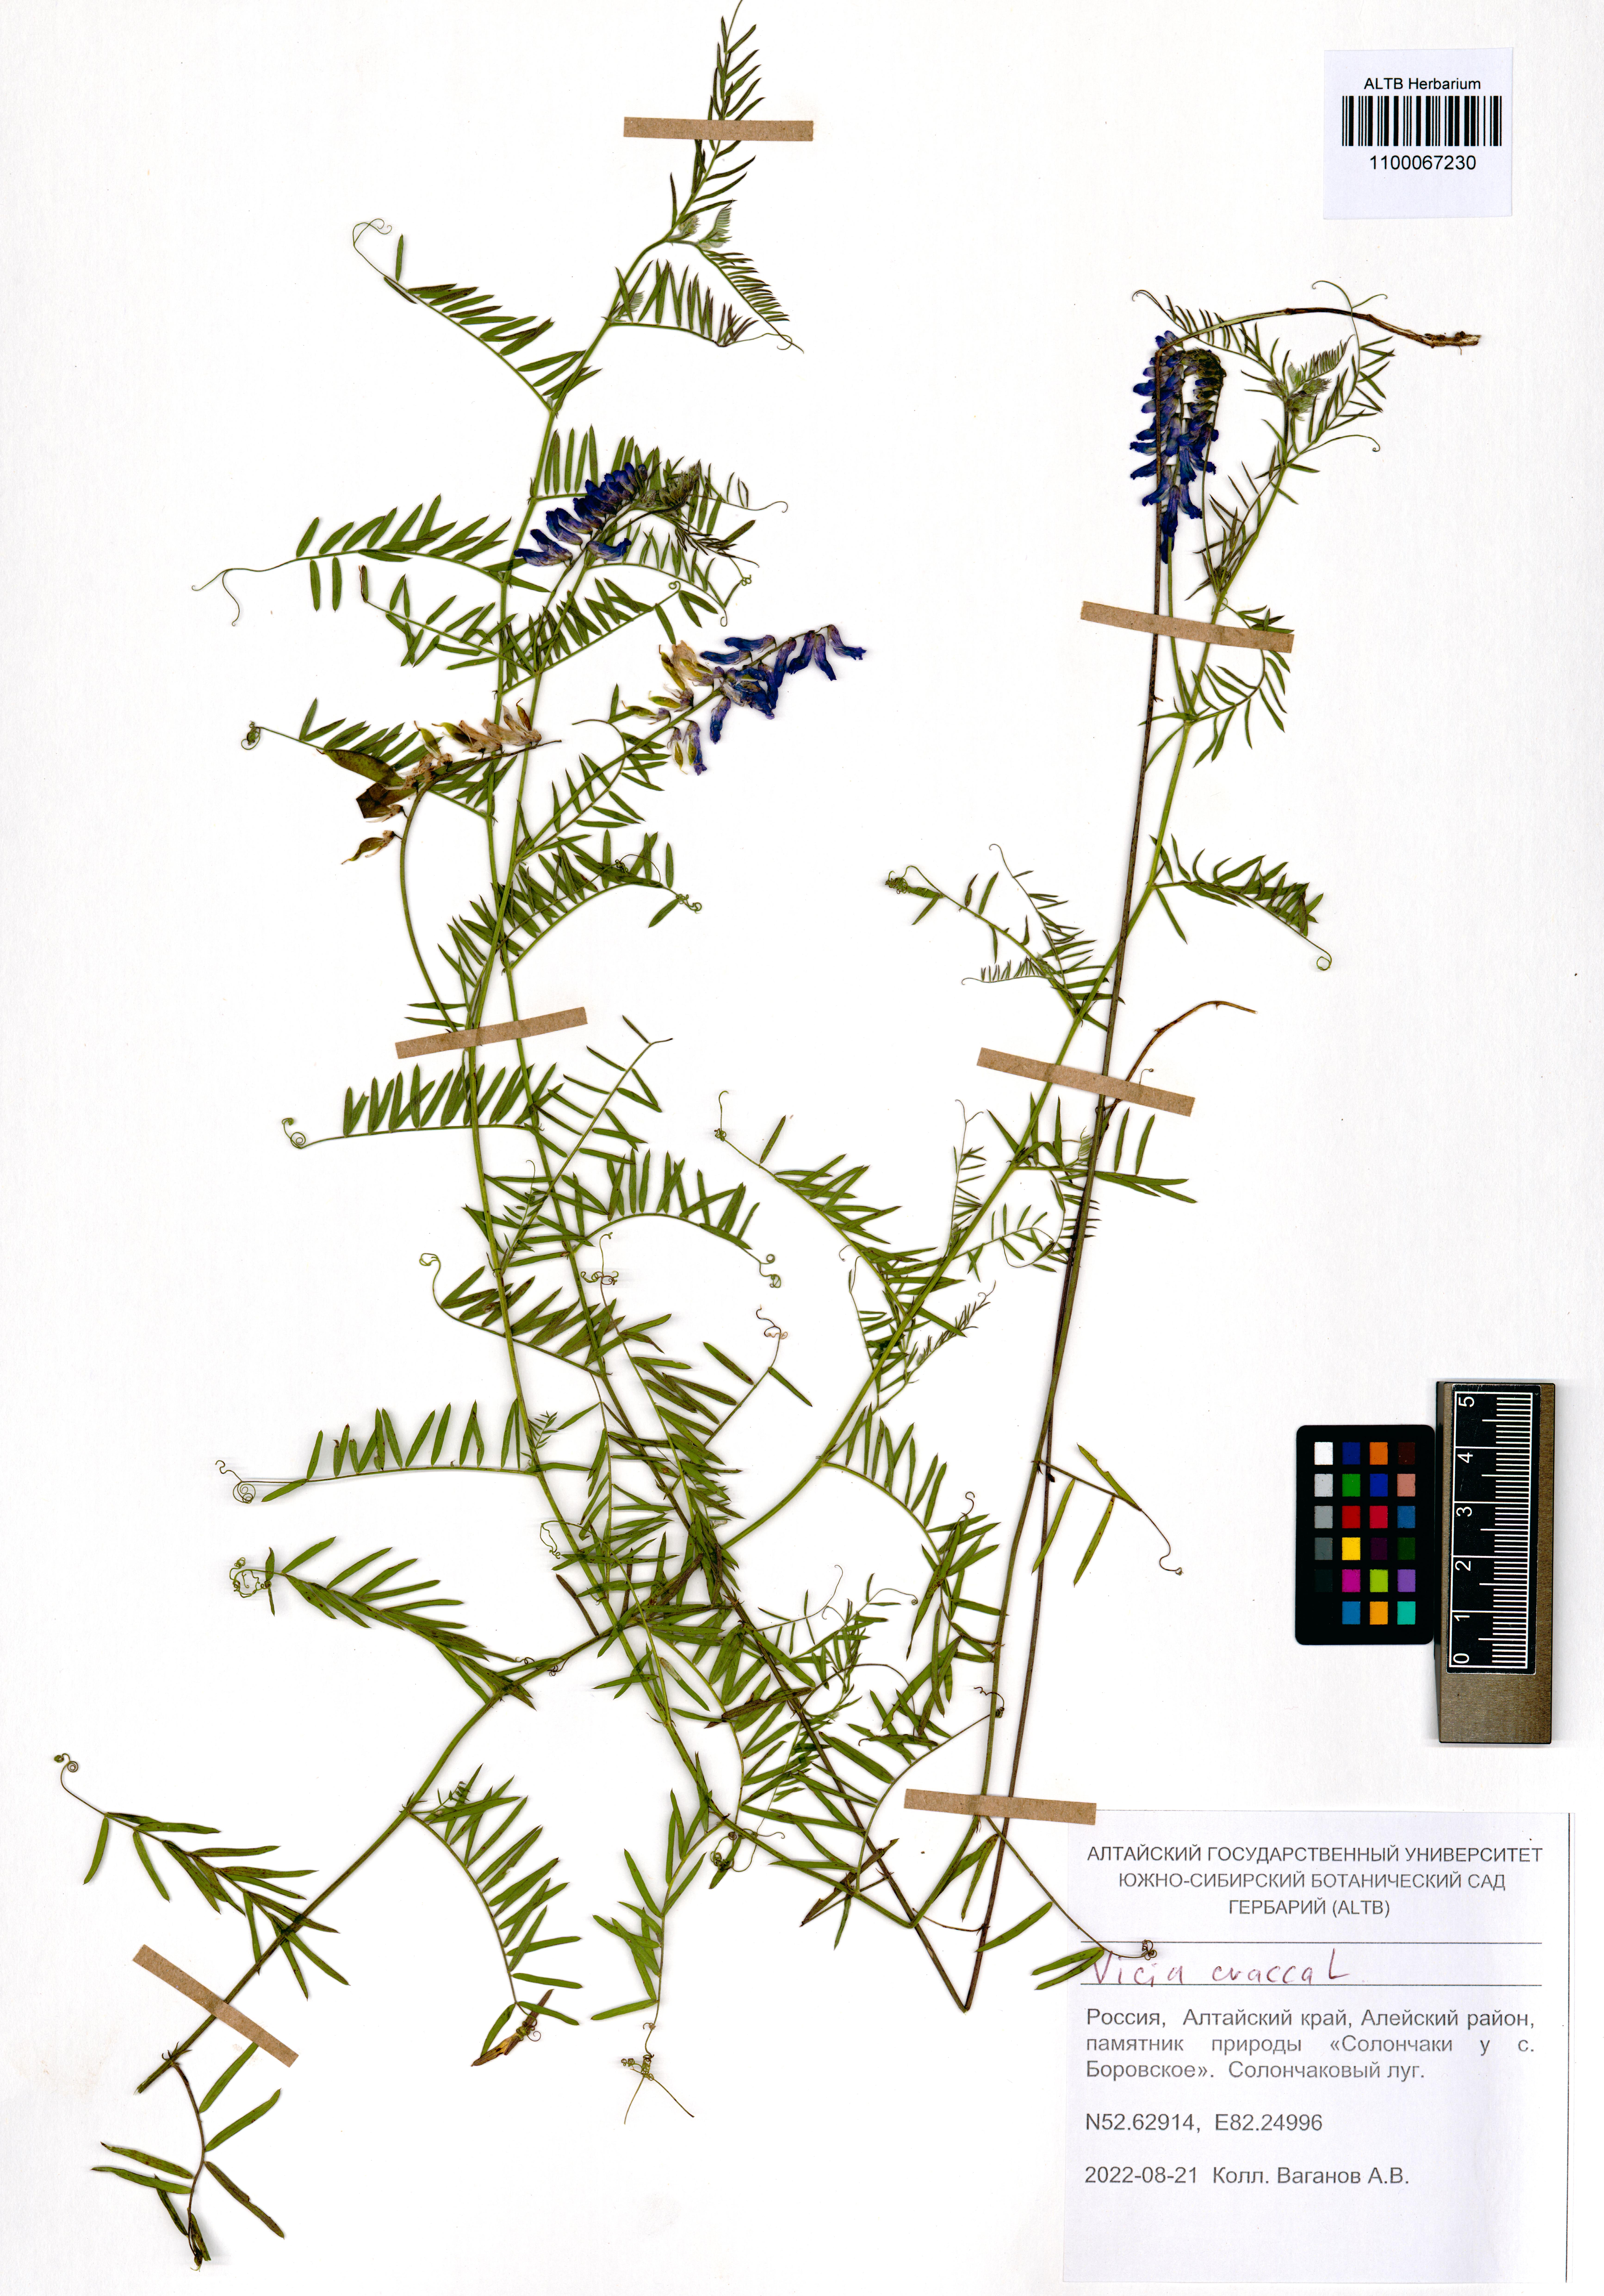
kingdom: Plantae
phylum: Tracheophyta
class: Magnoliopsida
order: Fabales
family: Fabaceae
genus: Vicia
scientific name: Vicia cracca
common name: Bird vetch
